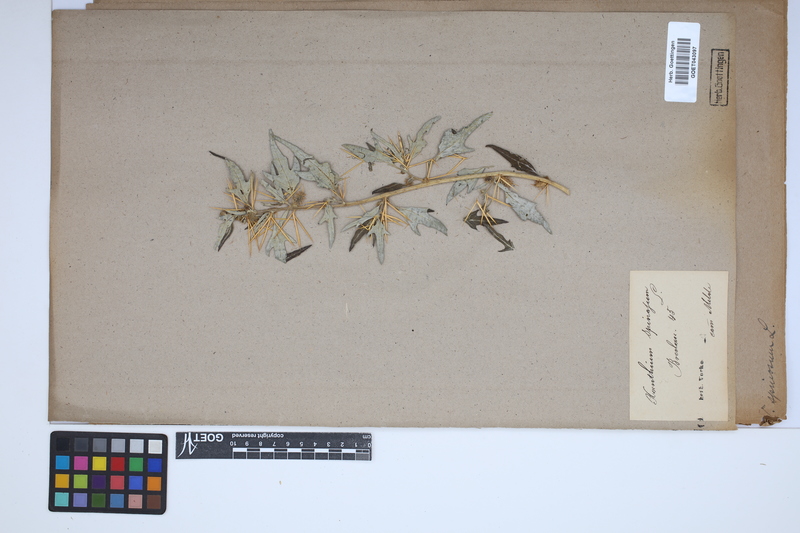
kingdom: Plantae
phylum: Tracheophyta
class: Magnoliopsida
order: Asterales
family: Asteraceae
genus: Xanthium
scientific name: Xanthium spinosum
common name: Spiny cocklebur
